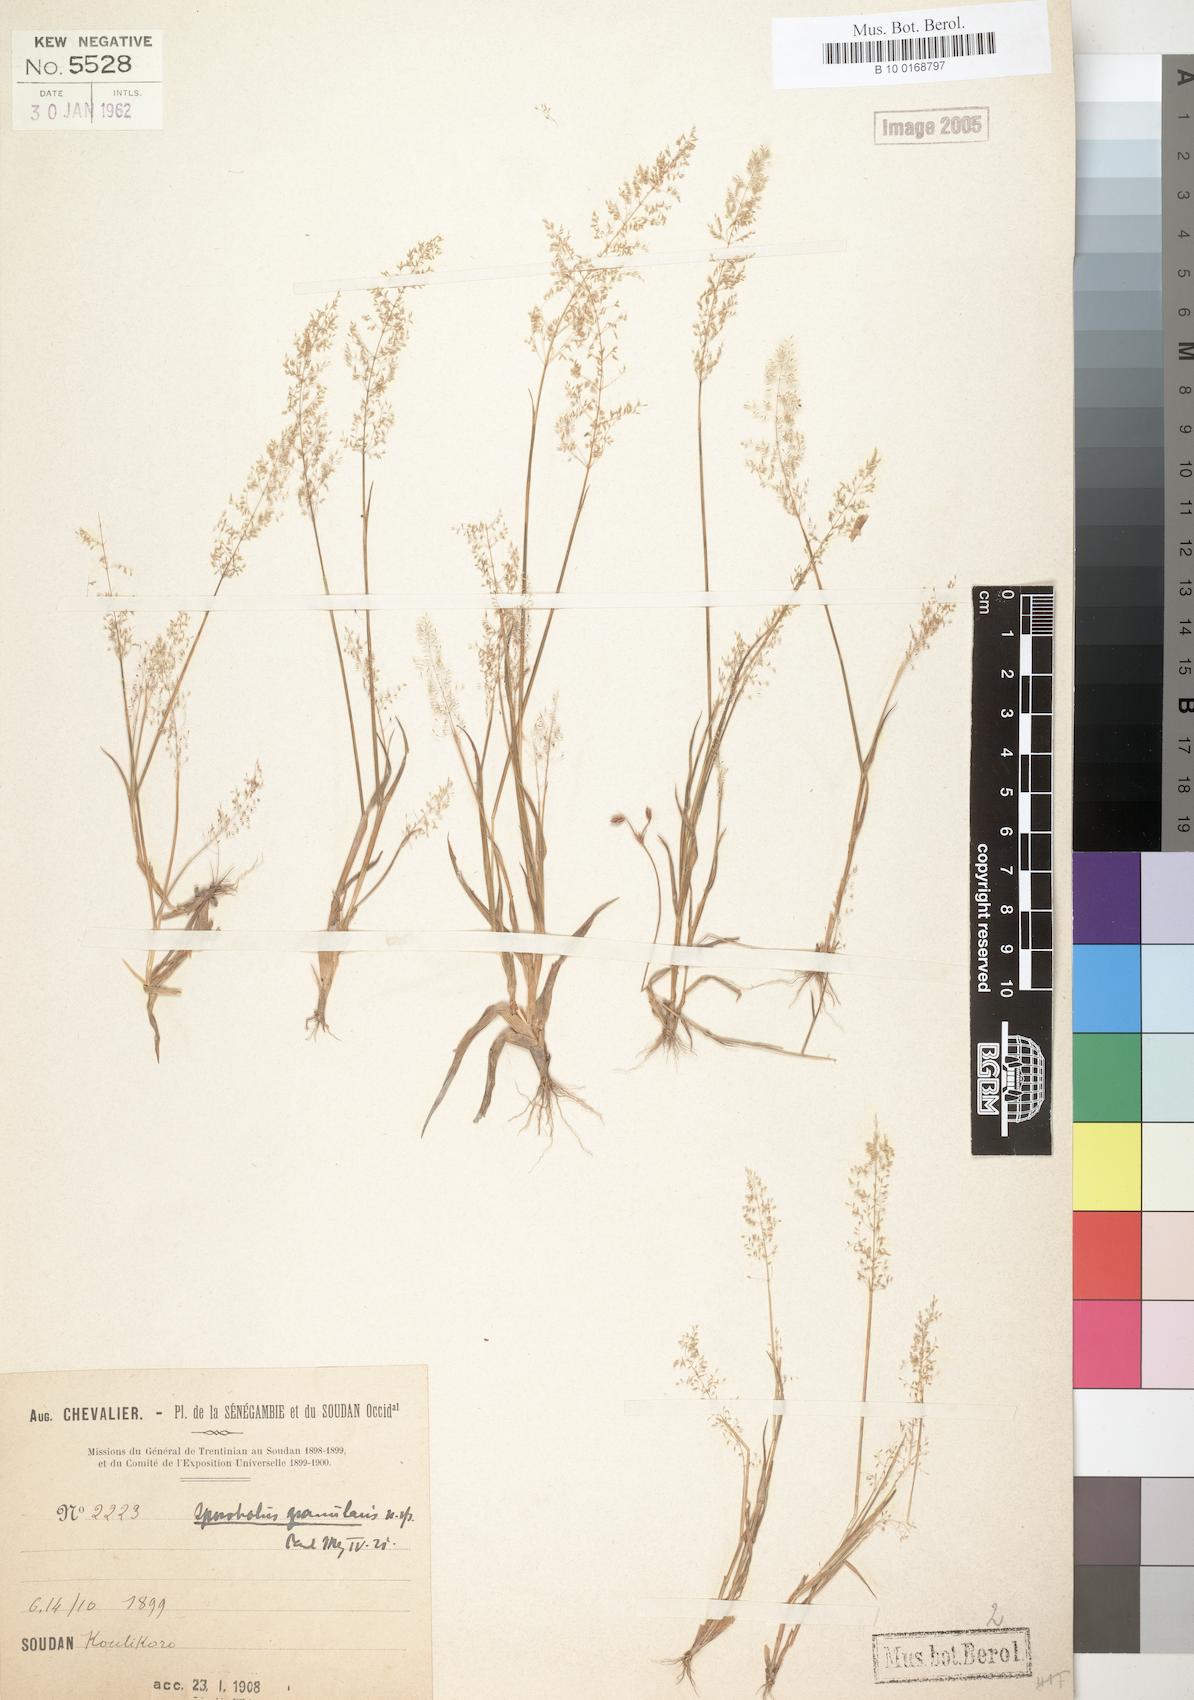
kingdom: Plantae
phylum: Tracheophyta
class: Liliopsida
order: Poales
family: Poaceae
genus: Sporobolus
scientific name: Sporobolus stolzii
